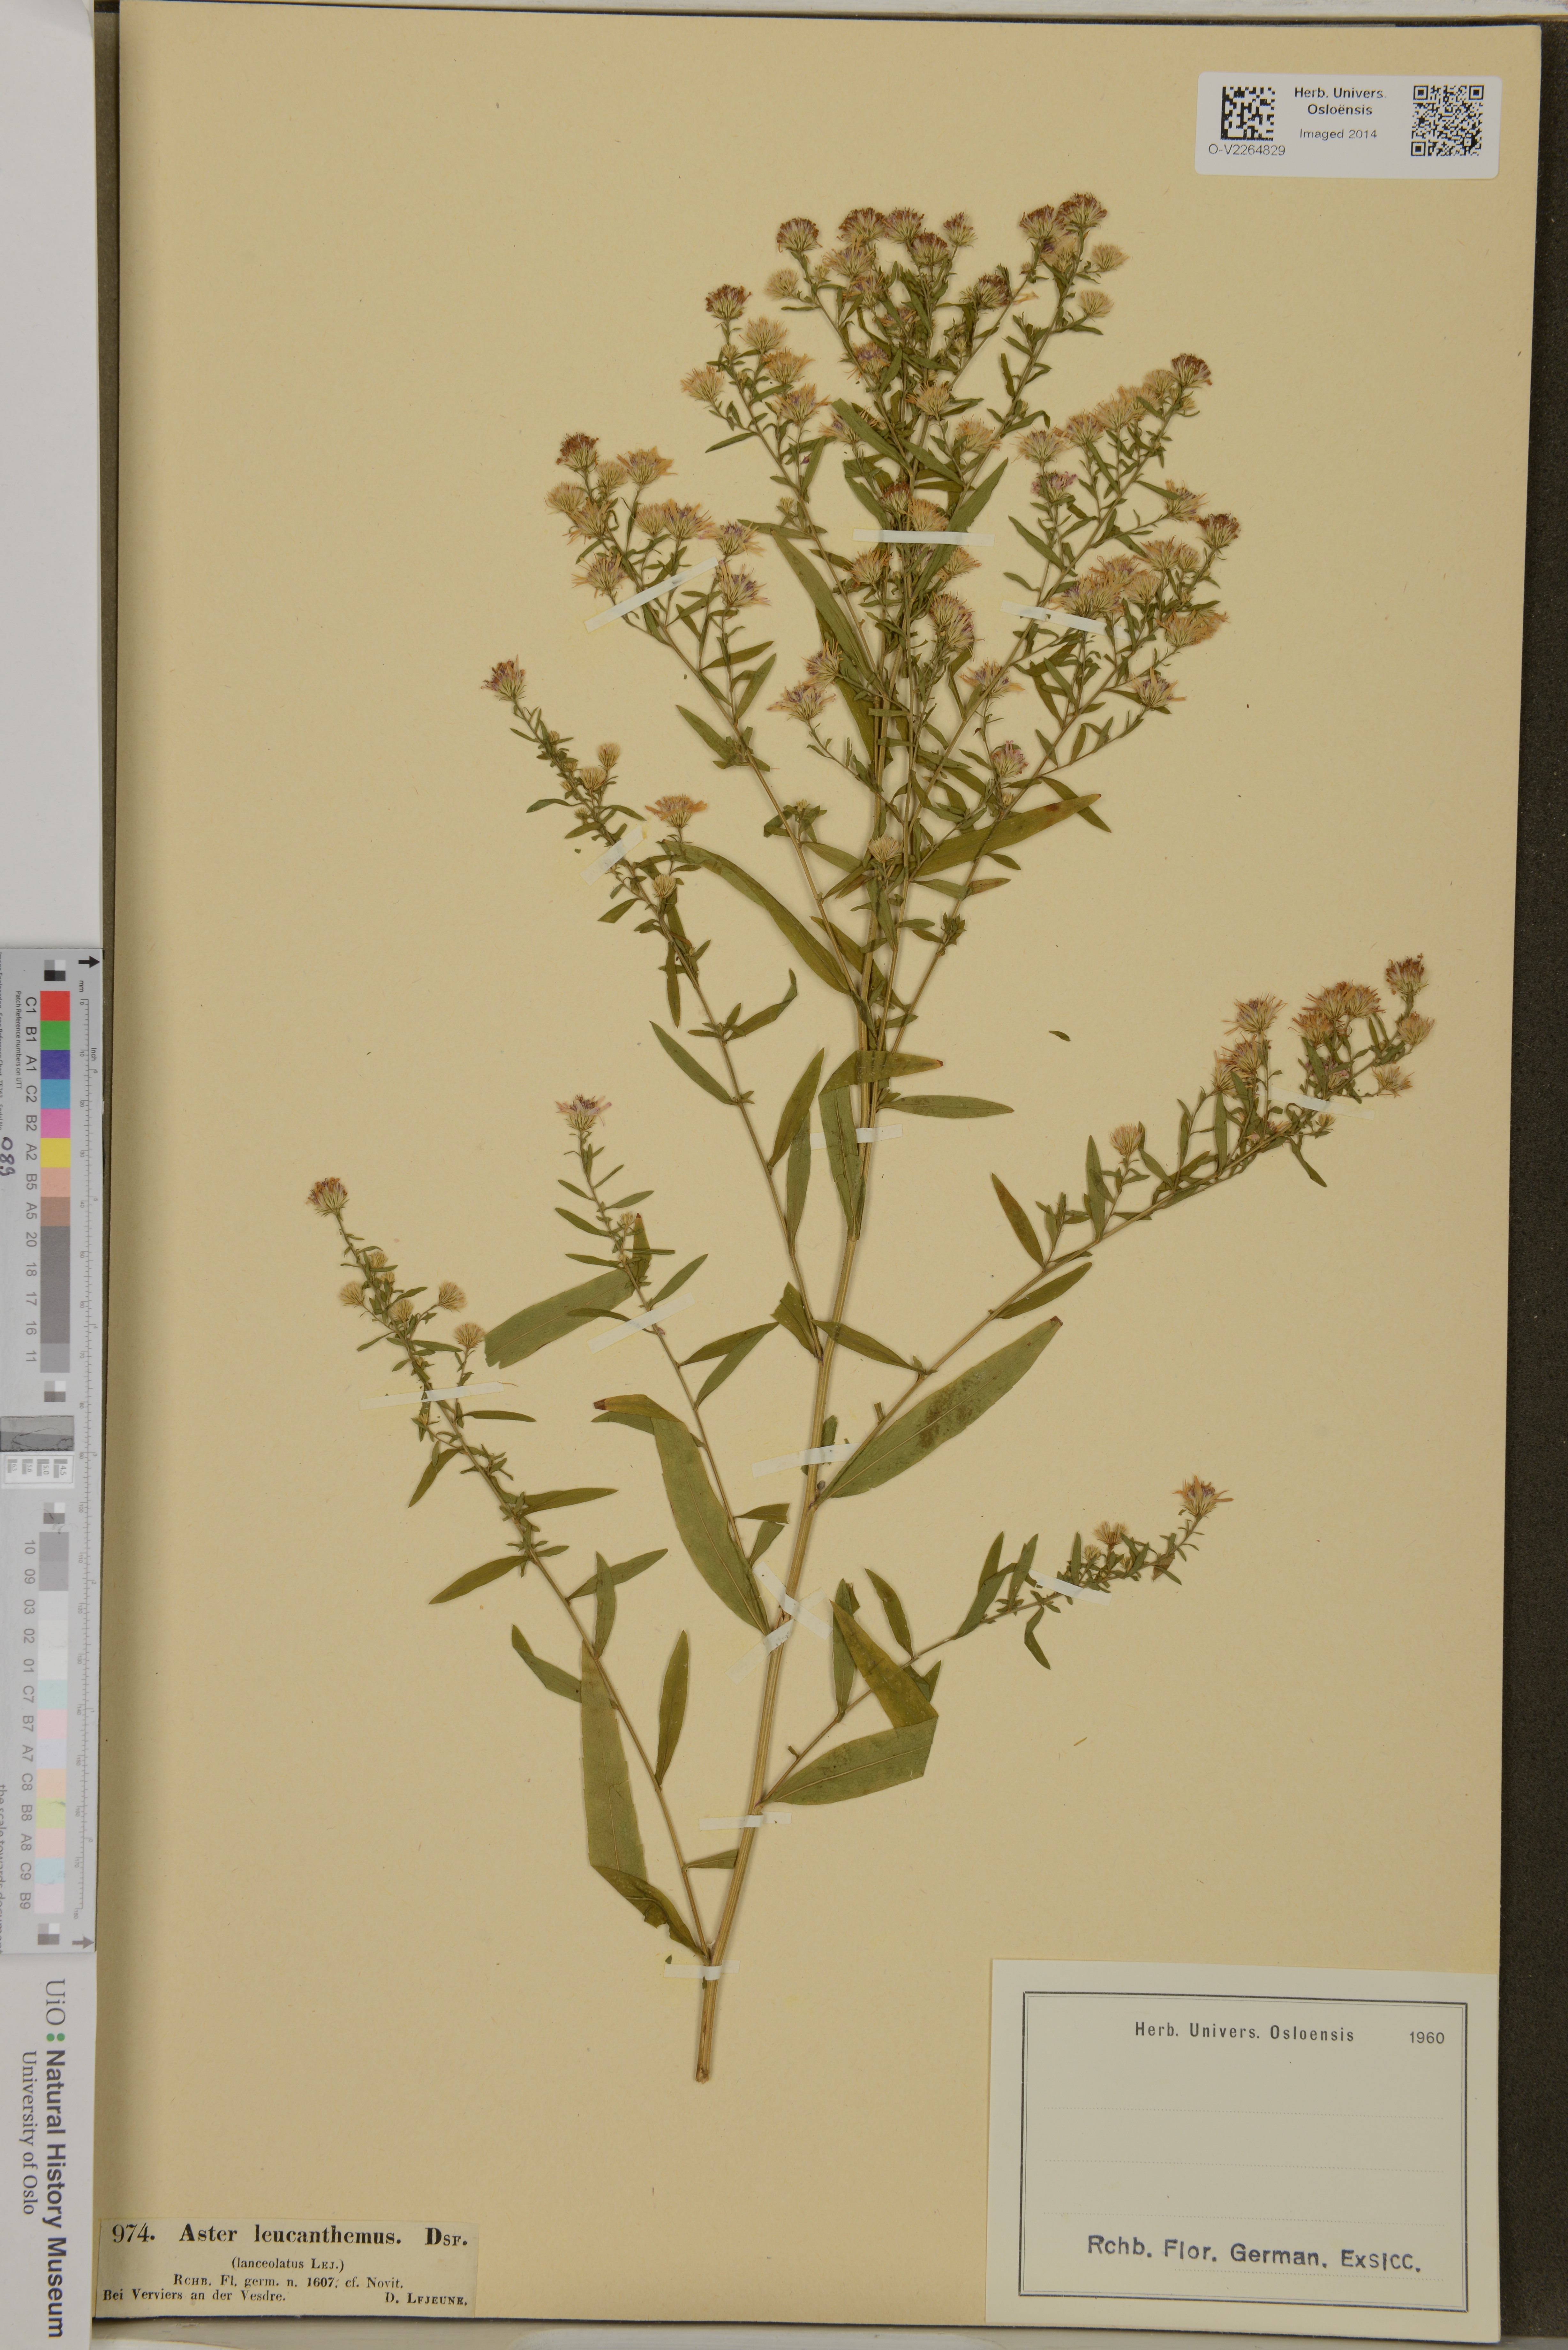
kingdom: Plantae
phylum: Tracheophyta
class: Magnoliopsida
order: Asterales
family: Asteraceae
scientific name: Asteraceae
